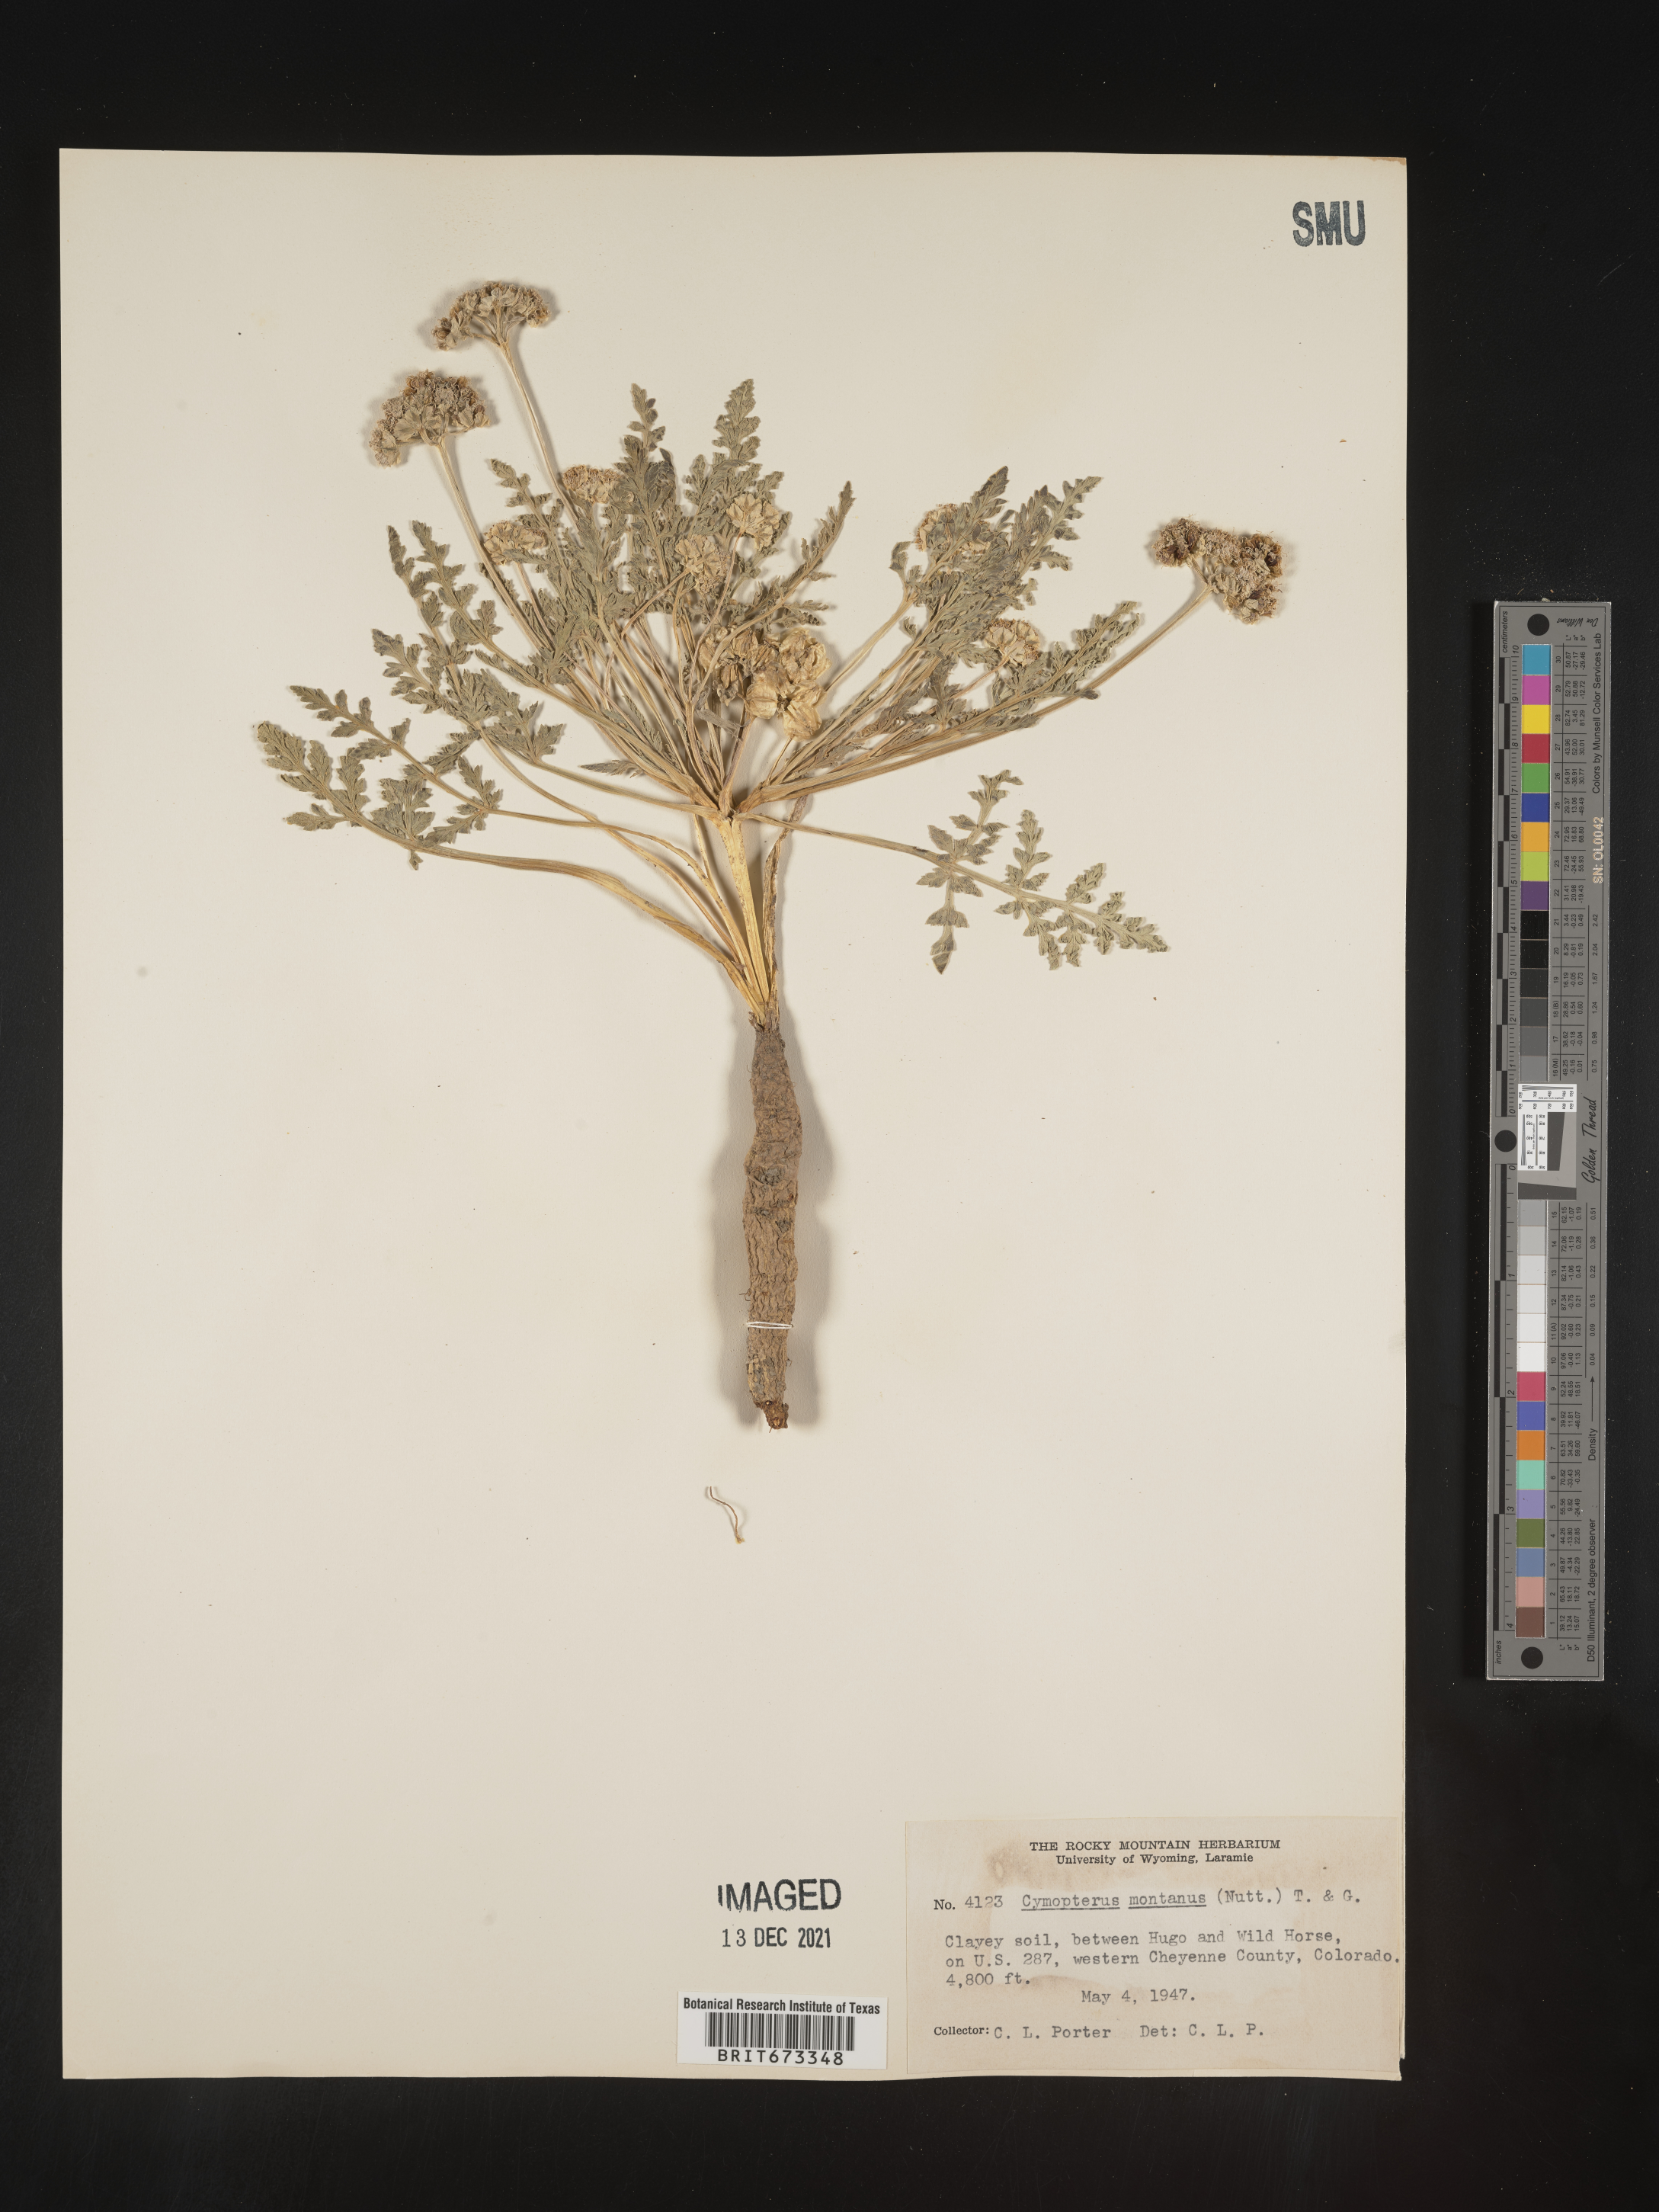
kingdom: Plantae
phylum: Tracheophyta
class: Magnoliopsida
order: Apiales
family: Apiaceae
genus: Vesper
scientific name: Vesper montanus
